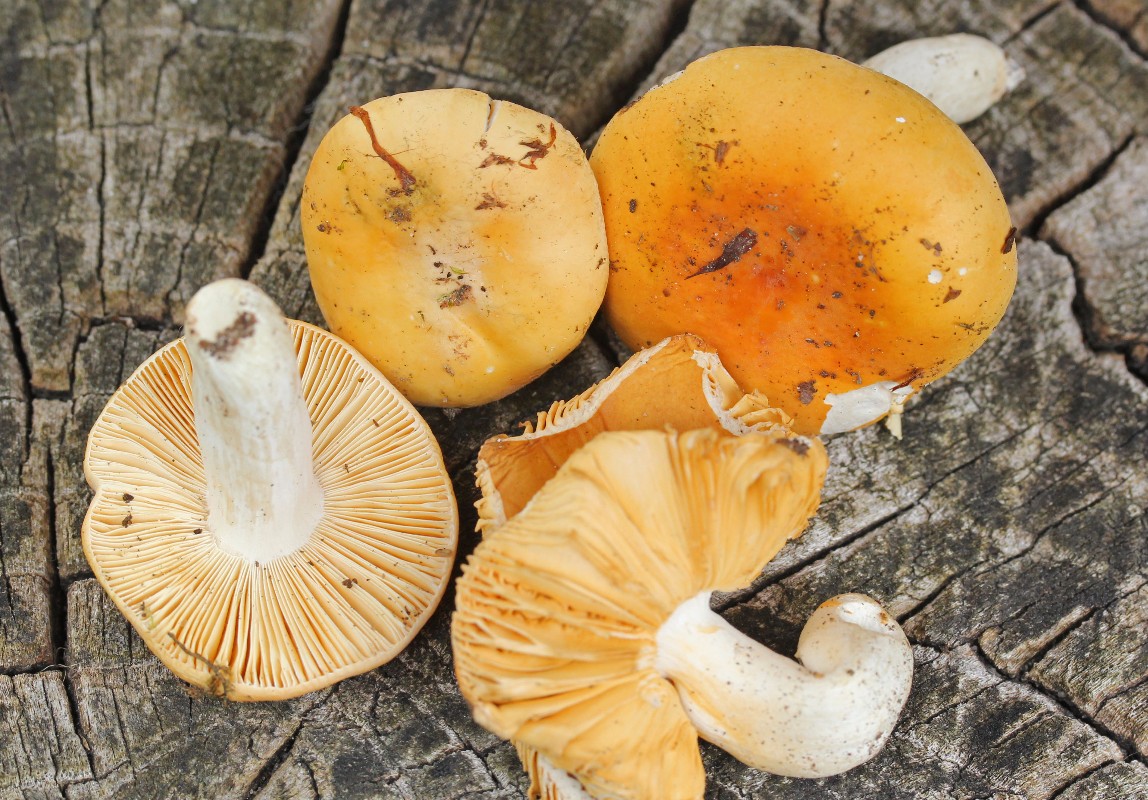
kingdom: Fungi
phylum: Basidiomycota
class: Agaricomycetes
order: Russulales
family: Russulaceae
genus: Russula
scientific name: Russula risigallina
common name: abrikos-skørhat
